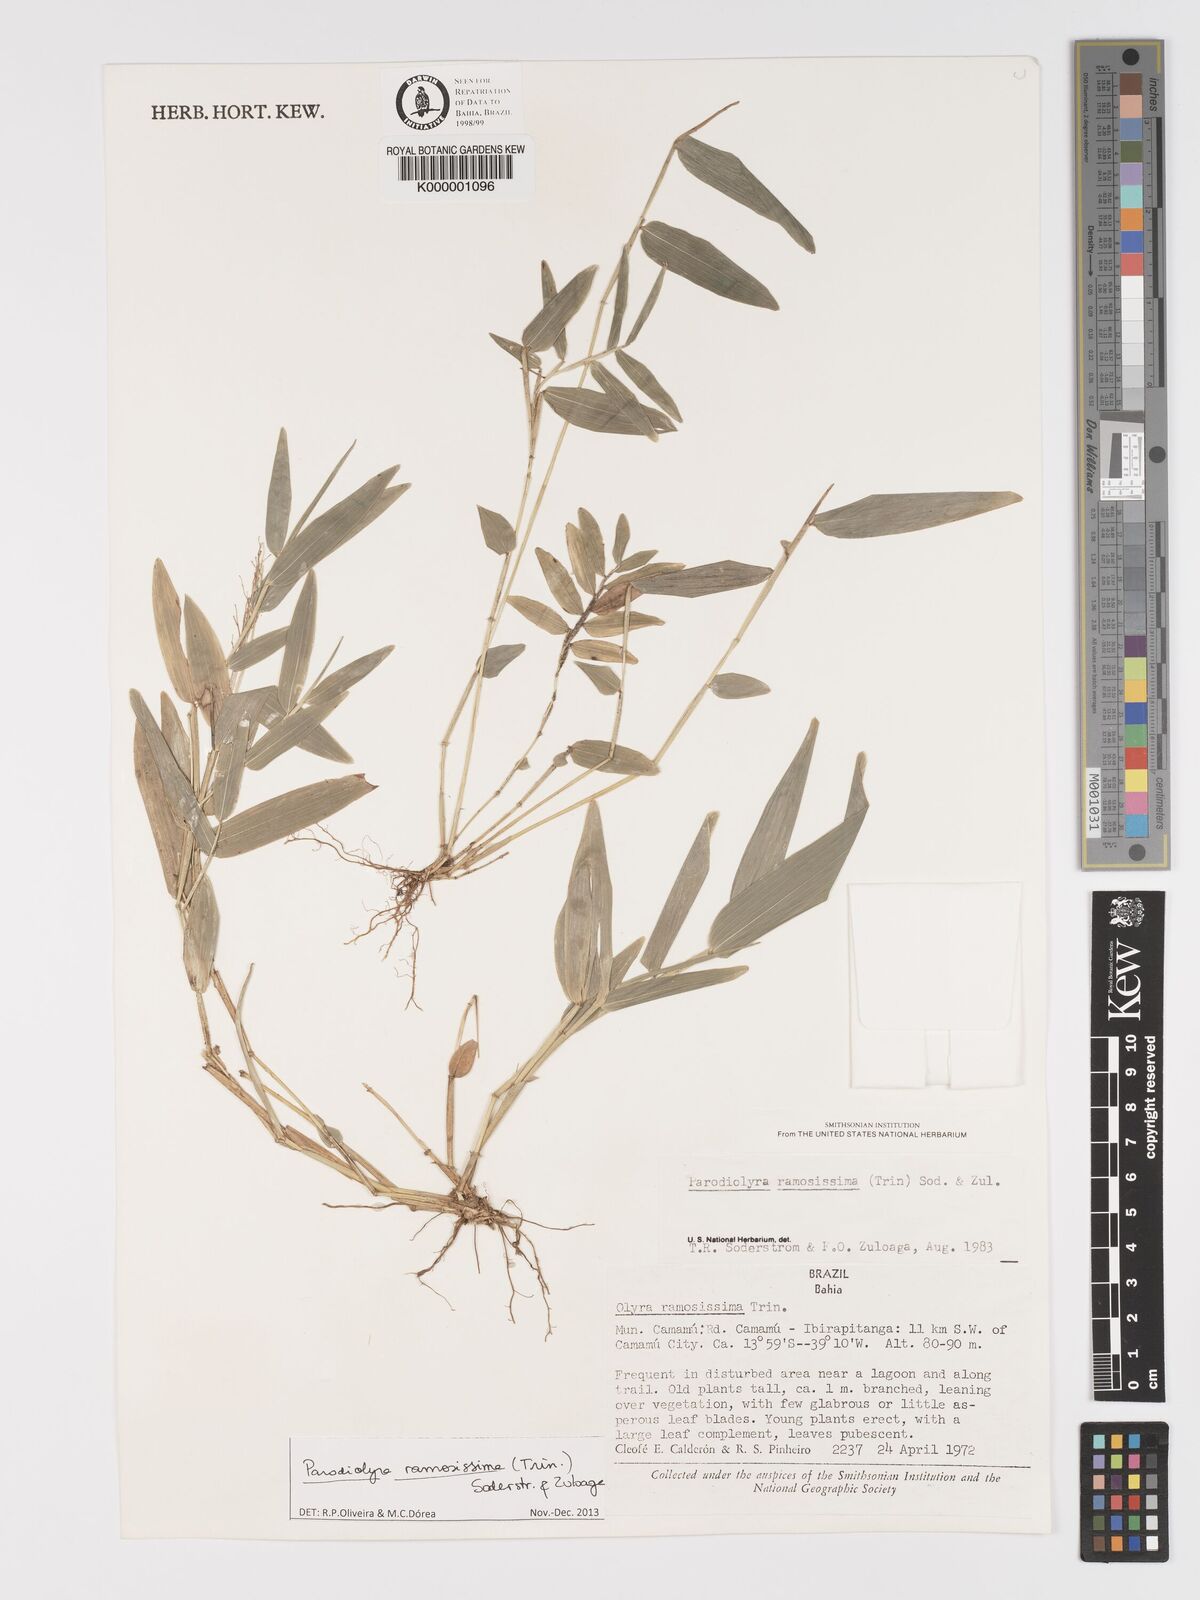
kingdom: Plantae
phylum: Tracheophyta
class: Liliopsida
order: Poales
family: Poaceae
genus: Parodiolyra
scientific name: Parodiolyra ramosissima
